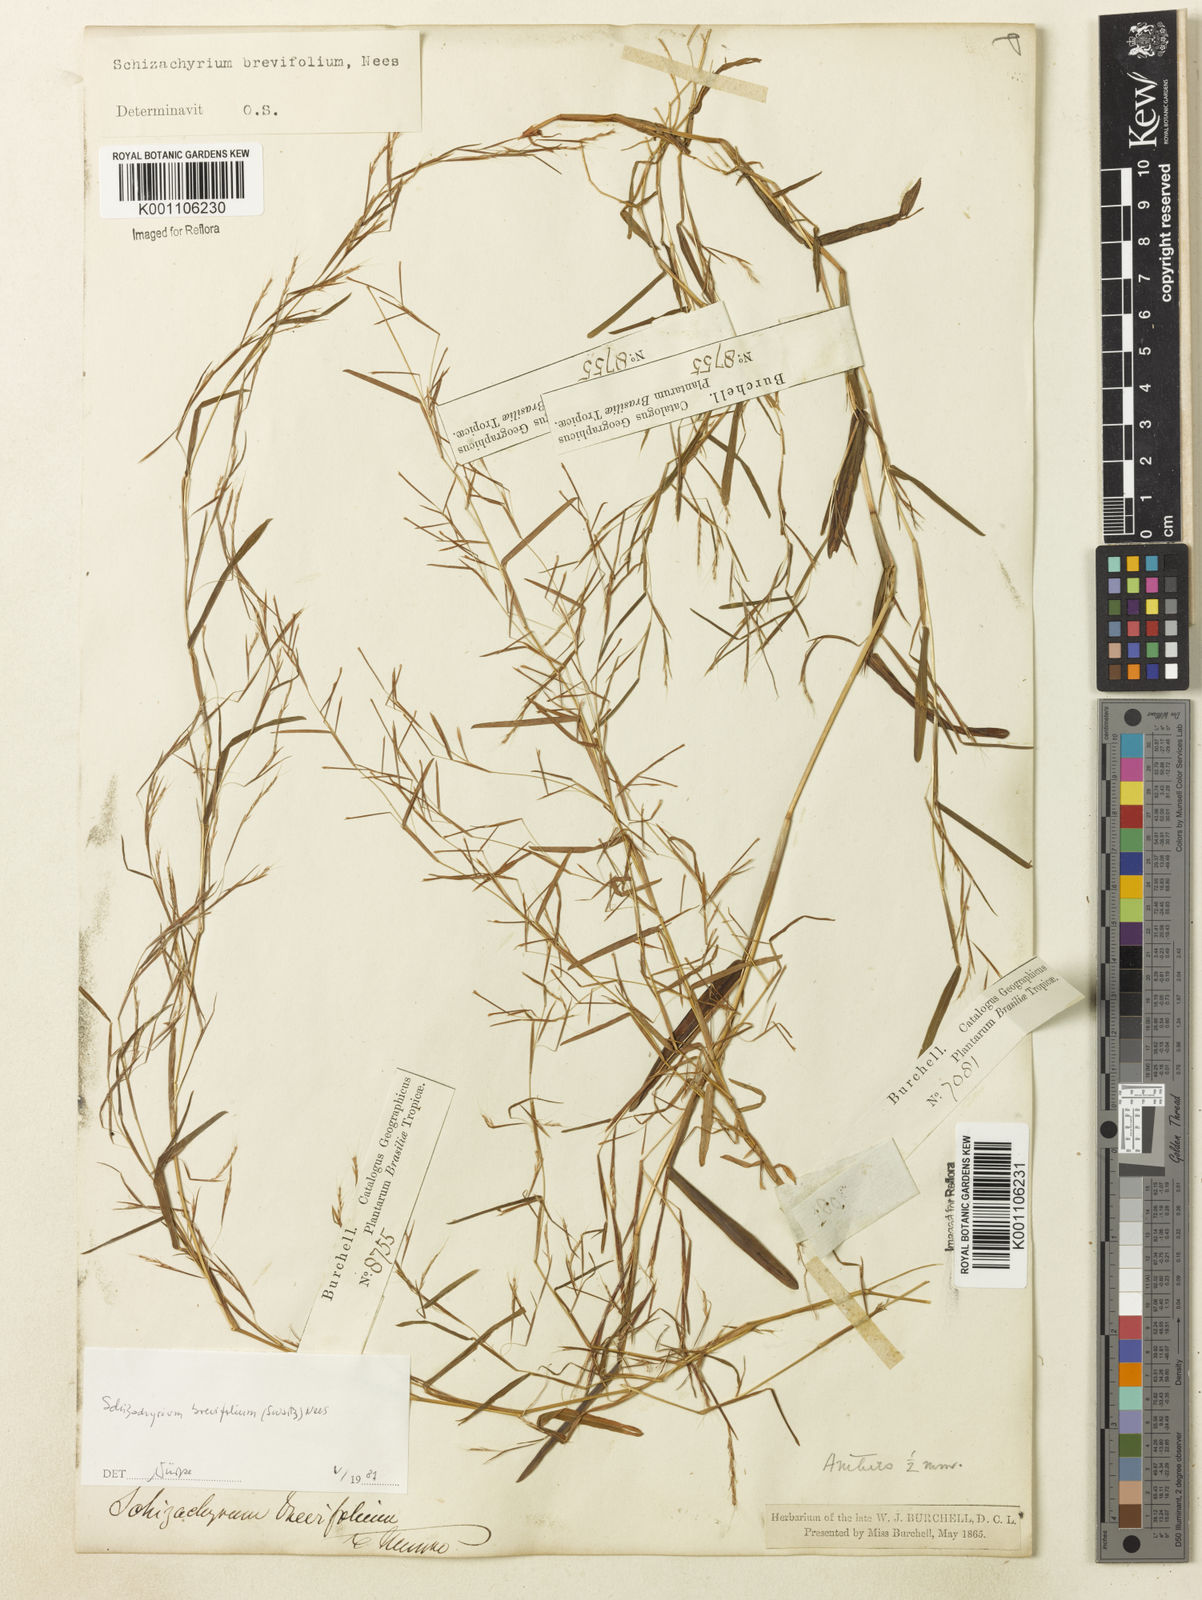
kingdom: Plantae
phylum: Tracheophyta
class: Liliopsida
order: Poales
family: Poaceae
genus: Schizachyrium
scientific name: Schizachyrium brevifolium
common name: Serillo dulce
